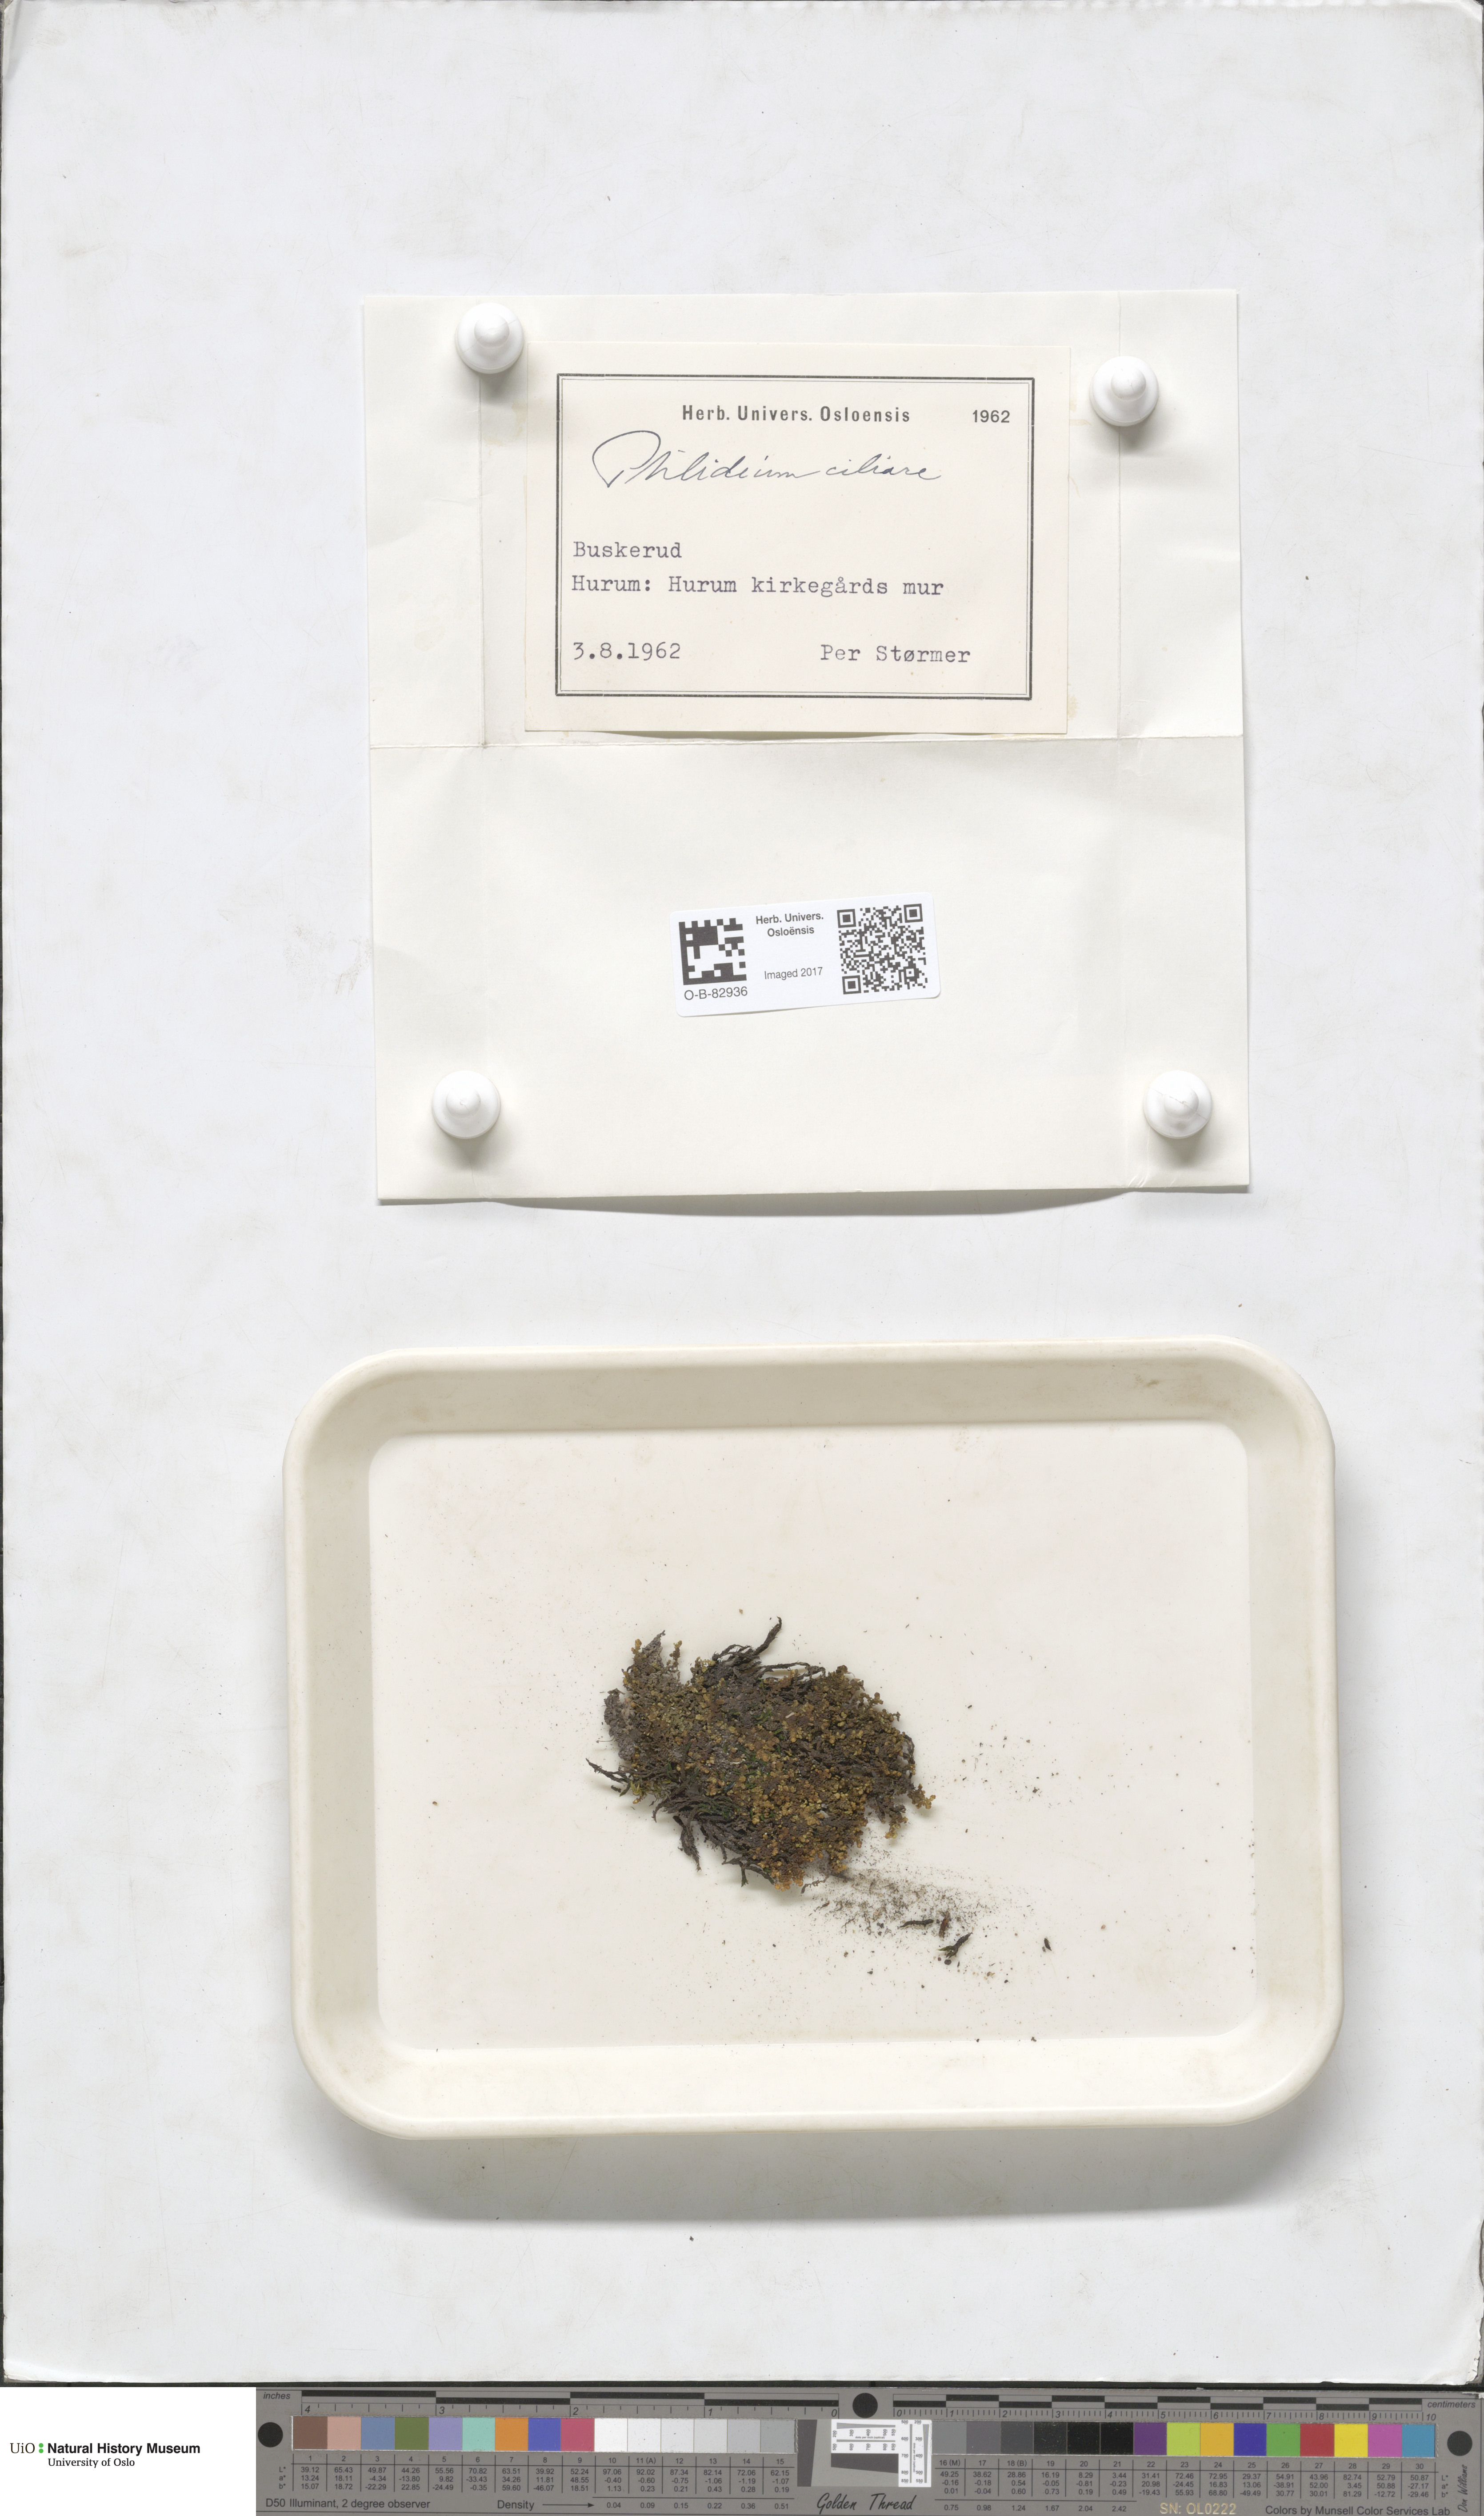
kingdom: Plantae
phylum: Marchantiophyta
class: Jungermanniopsida
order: Ptilidiales
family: Ptilidiaceae
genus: Ptilidium
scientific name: Ptilidium ciliare
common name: Ciliate fringewort
